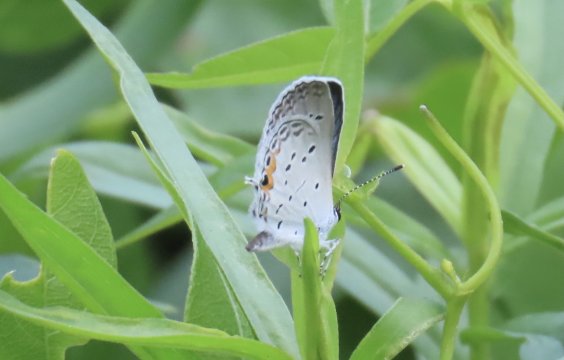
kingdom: Animalia
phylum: Arthropoda
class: Insecta
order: Lepidoptera
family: Lycaenidae
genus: Elkalyce
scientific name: Elkalyce comyntas
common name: Eastern Tailed-Blue
